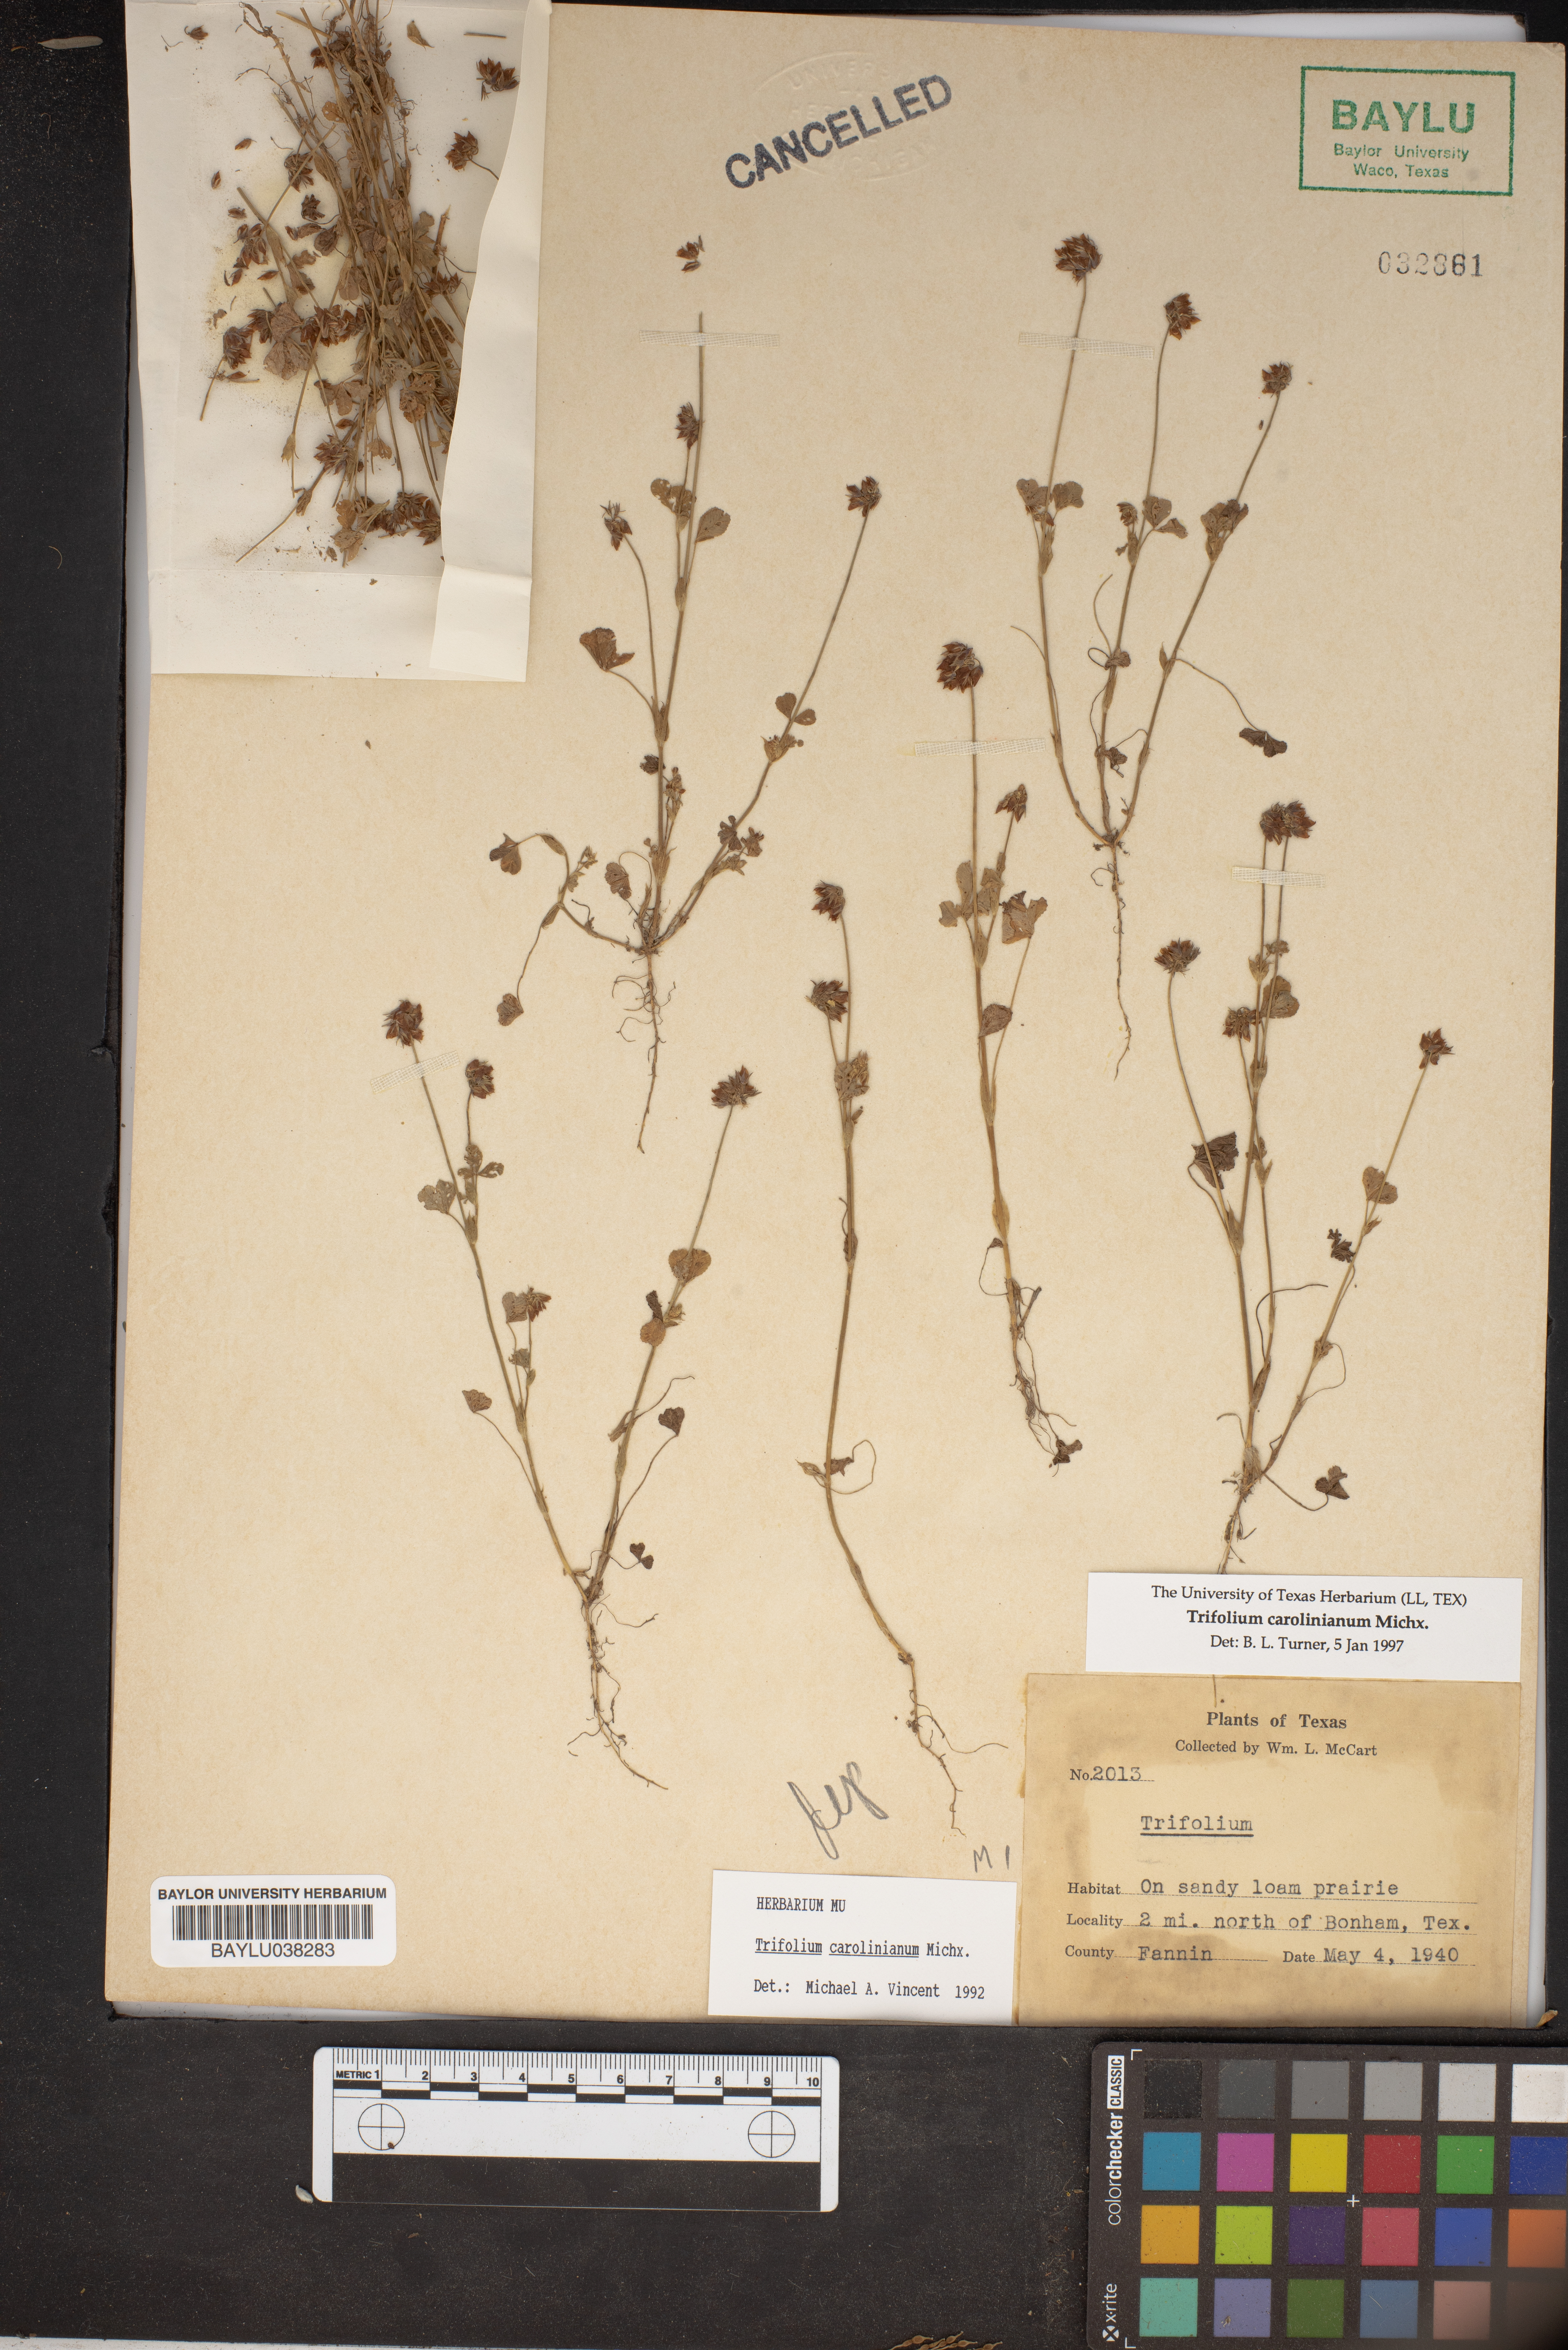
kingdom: Plantae
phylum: Tracheophyta
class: Magnoliopsida
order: Fabales
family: Fabaceae
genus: Trifolium
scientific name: Trifolium carolinianum
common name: Wild white clover
